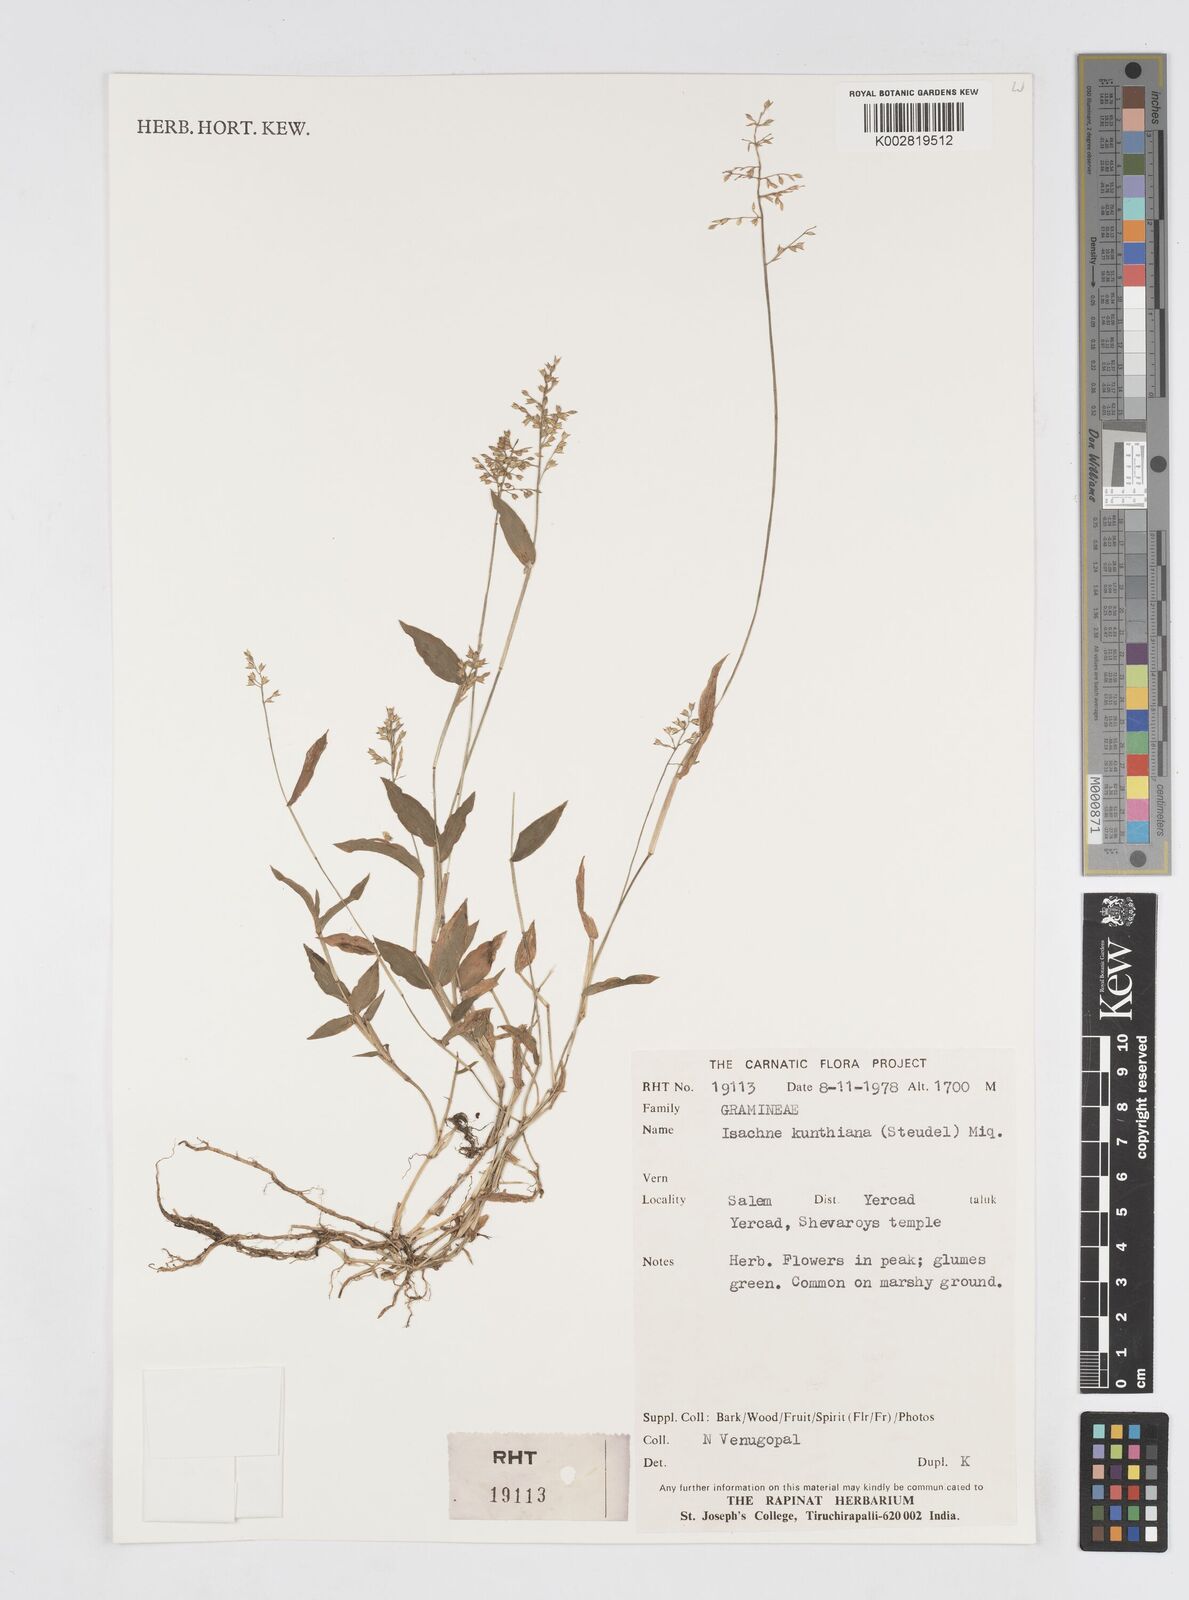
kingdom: Plantae
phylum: Tracheophyta
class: Liliopsida
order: Poales
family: Poaceae
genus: Isachne
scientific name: Isachne kunthiana
